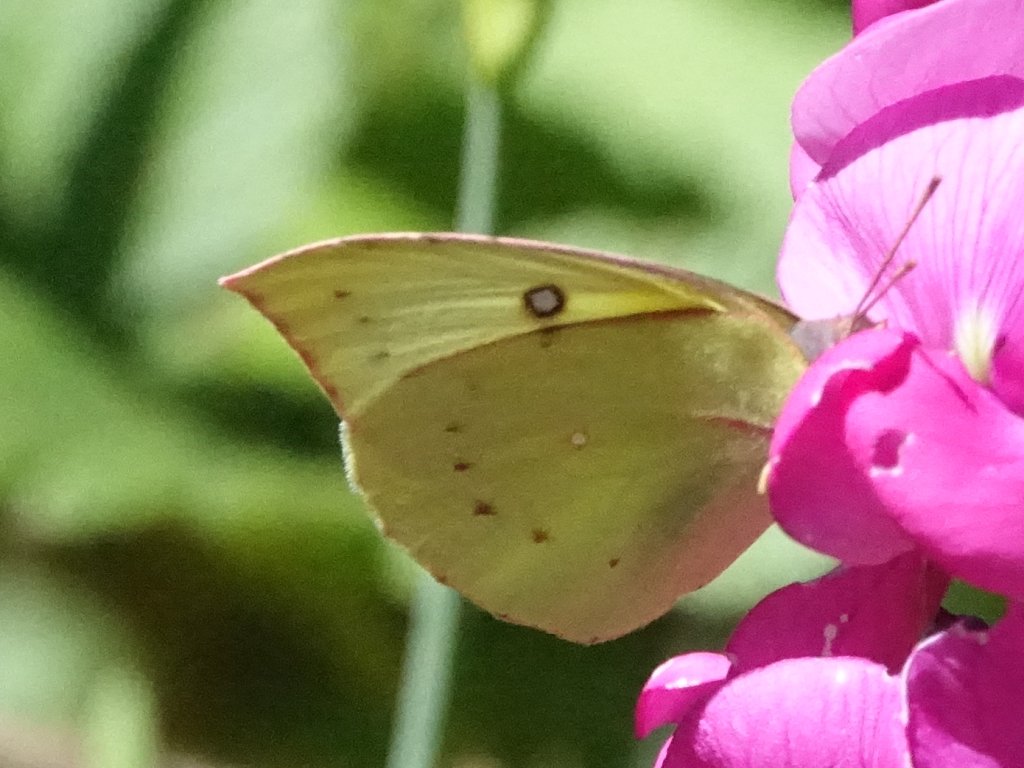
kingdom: Animalia
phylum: Arthropoda
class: Insecta
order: Lepidoptera
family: Pieridae
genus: Zerene
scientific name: Zerene eurydice
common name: California Dogface
